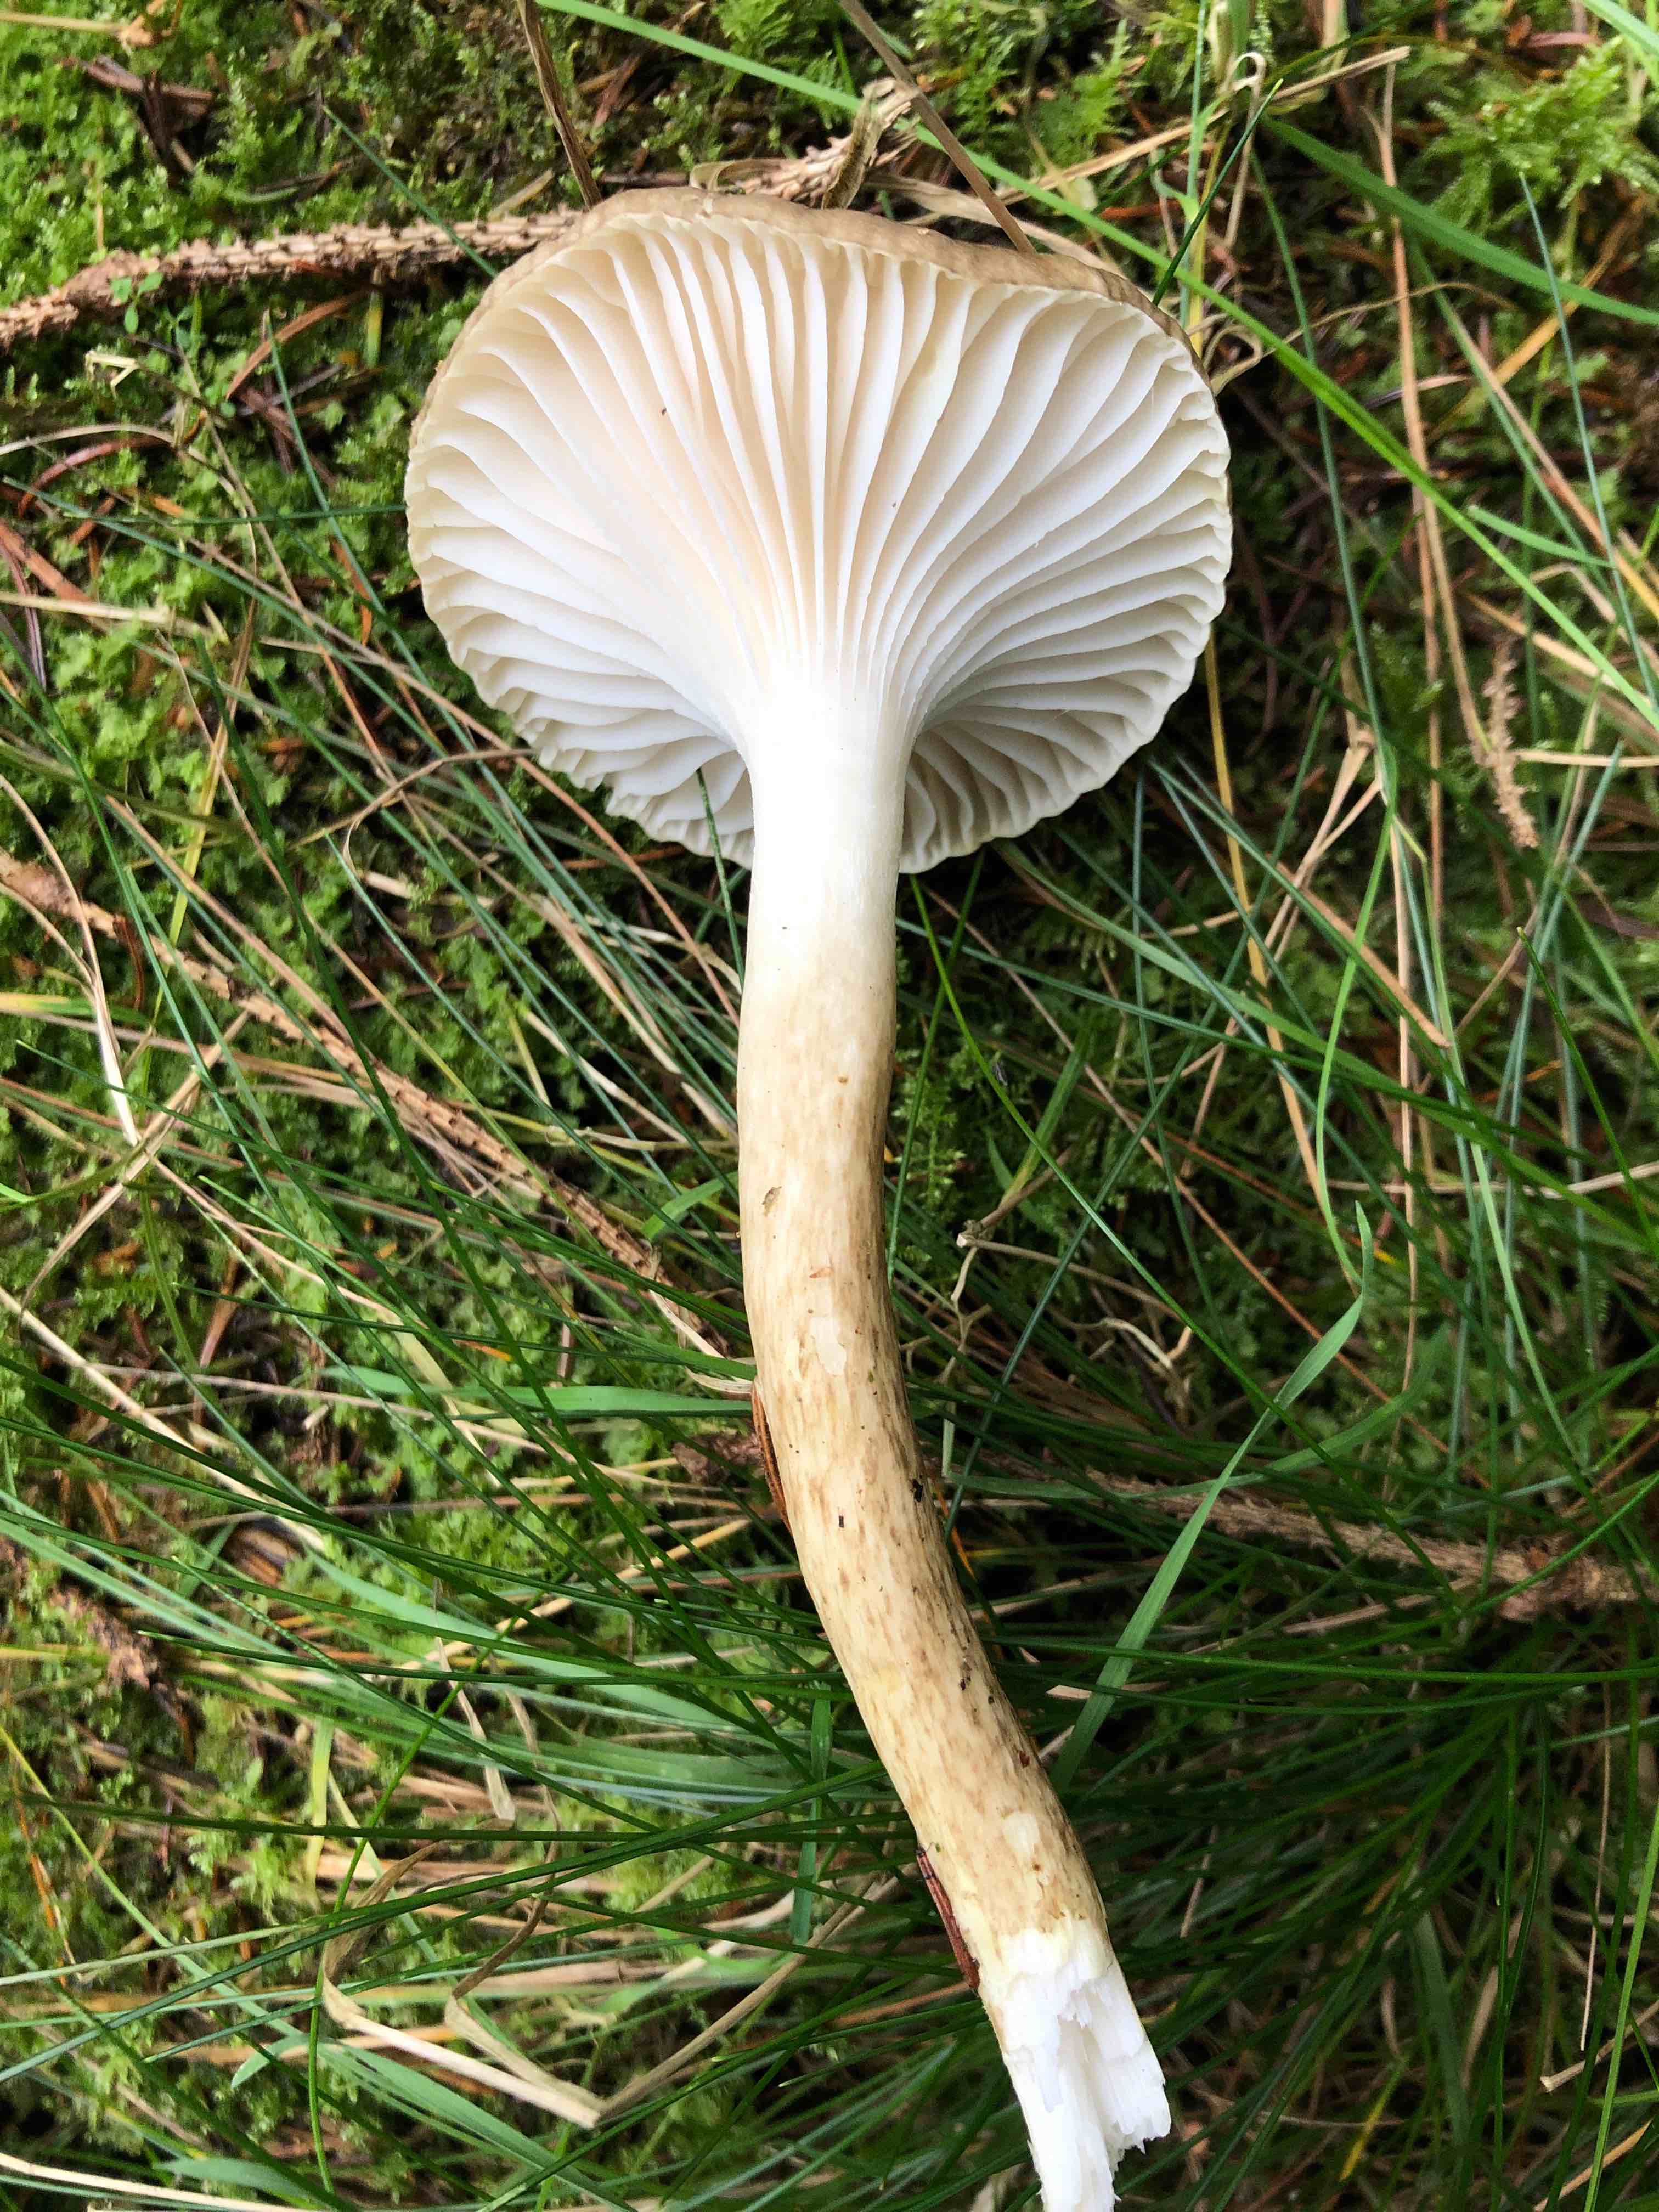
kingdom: Fungi
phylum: Basidiomycota
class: Agaricomycetes
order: Agaricales
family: Hygrophoraceae
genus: Hygrophorus
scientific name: Hygrophorus olivaceoalbus
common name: hvidbrun sneglehat
